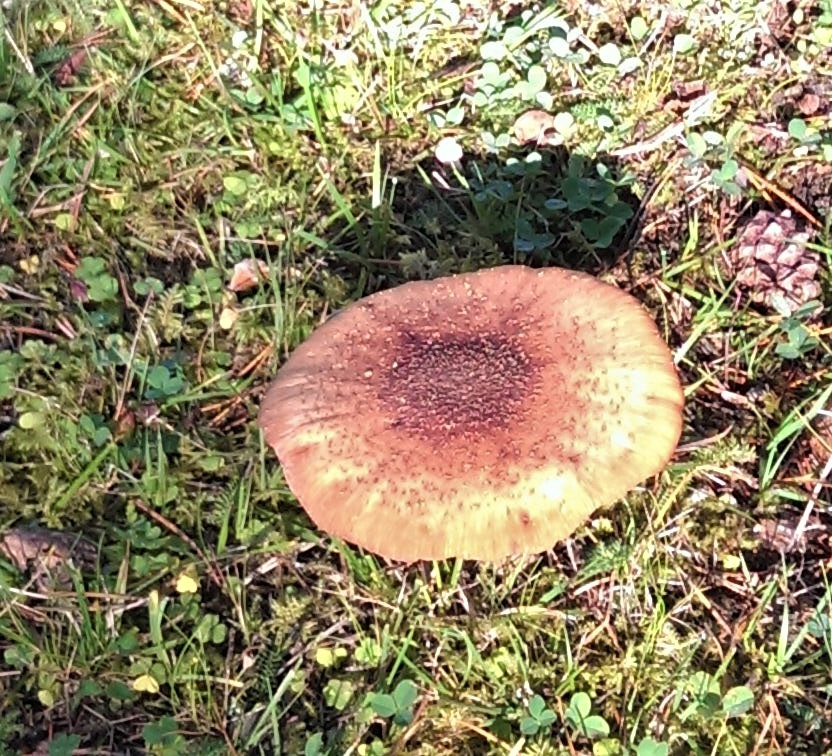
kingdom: Fungi
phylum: Basidiomycota
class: Agaricomycetes
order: Agaricales
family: Amanitaceae
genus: Amanita
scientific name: Amanita
